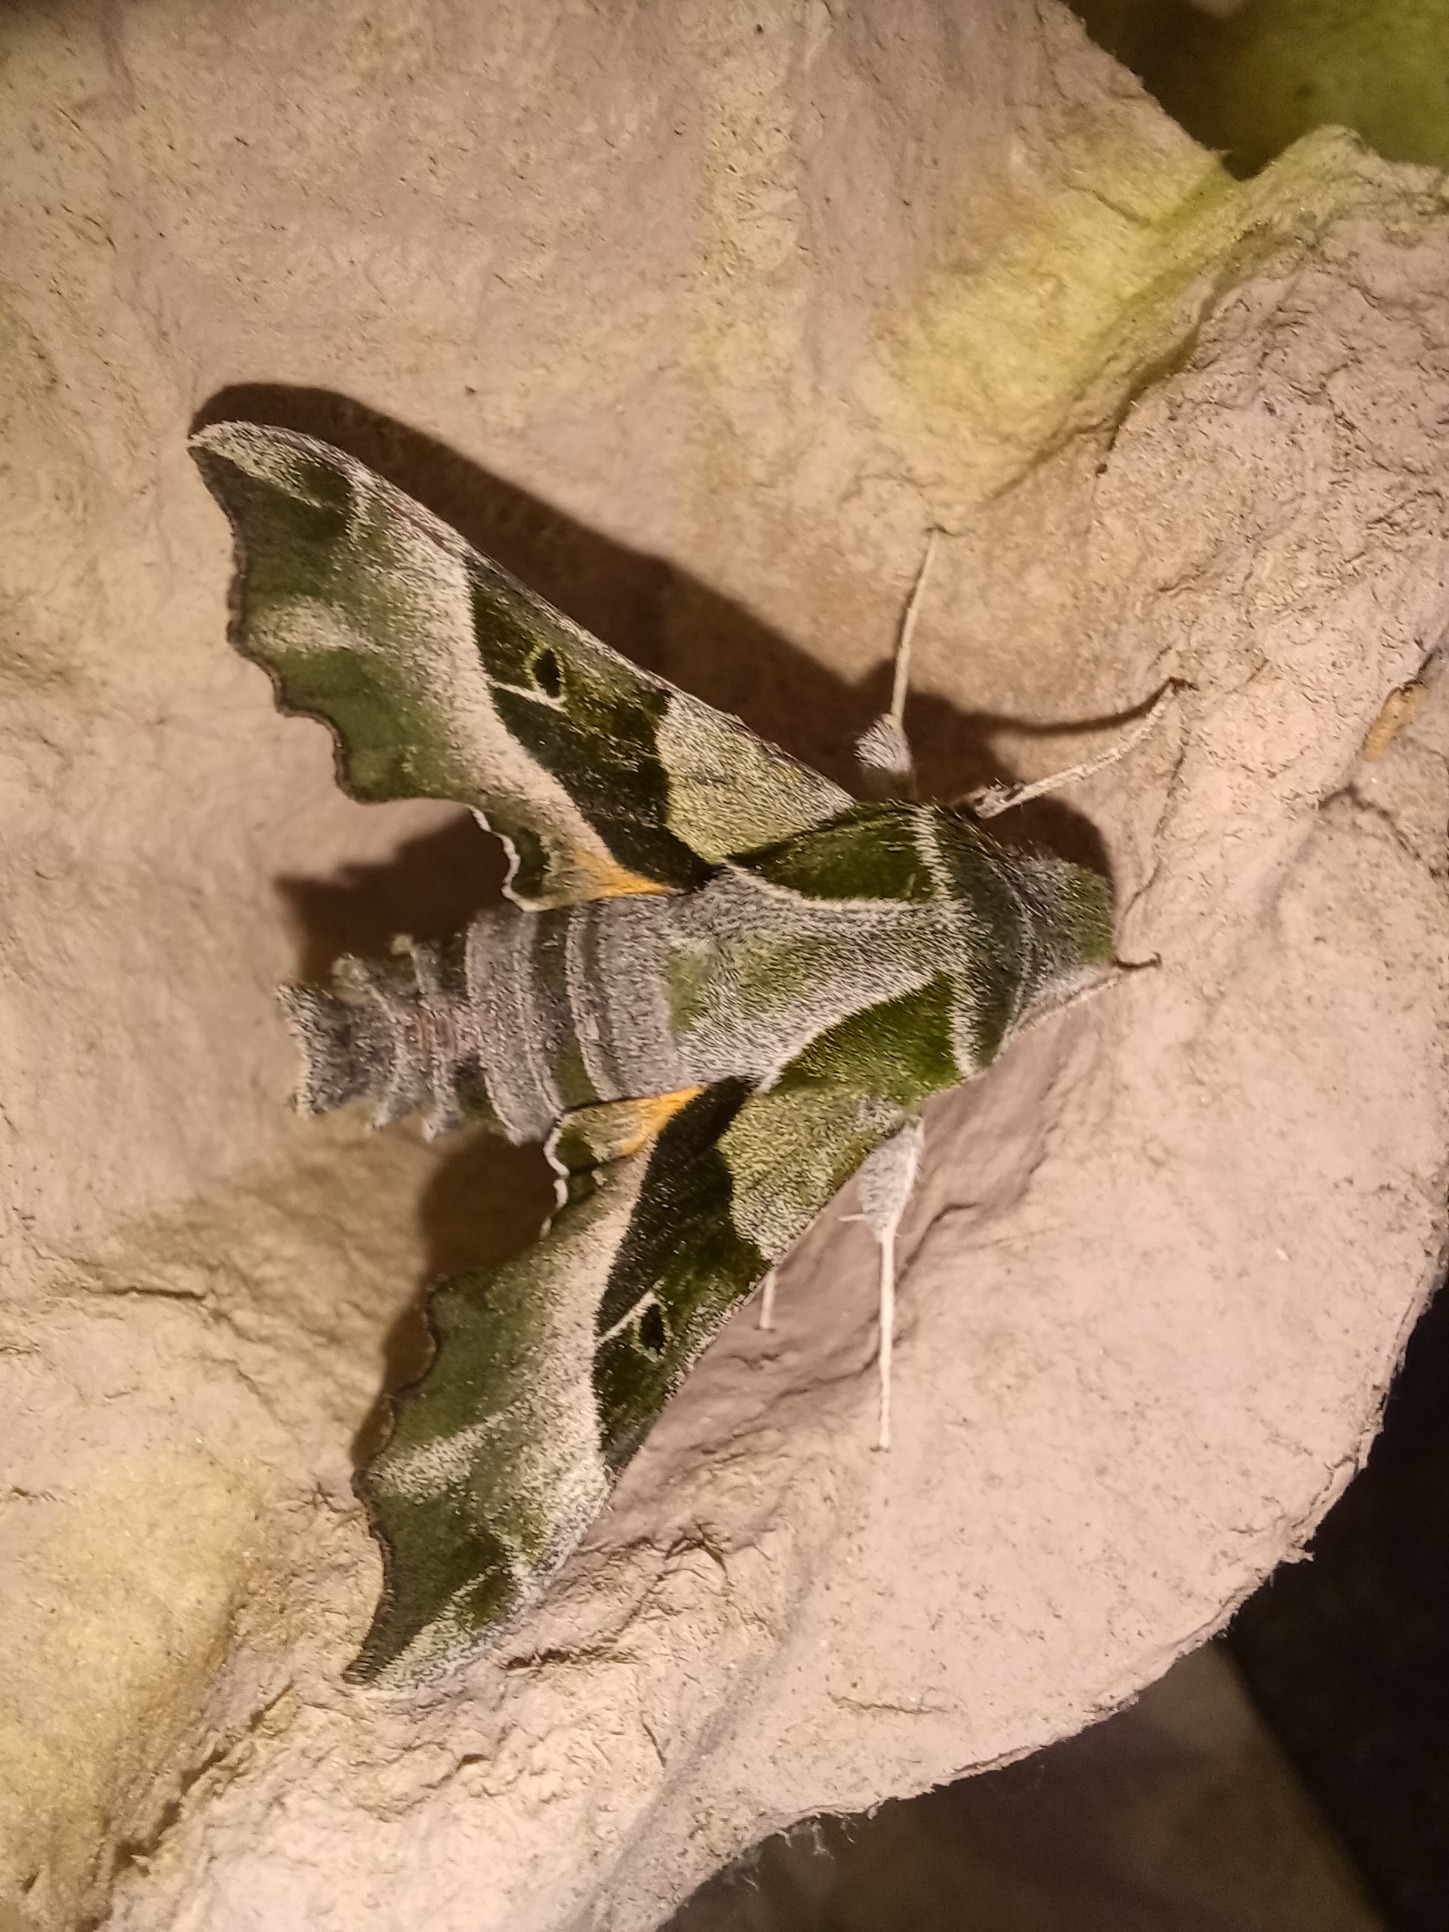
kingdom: Animalia
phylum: Arthropoda
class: Insecta
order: Lepidoptera
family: Sphingidae
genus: Proserpinus
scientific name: Proserpinus proserpina
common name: Natlyssværmer
